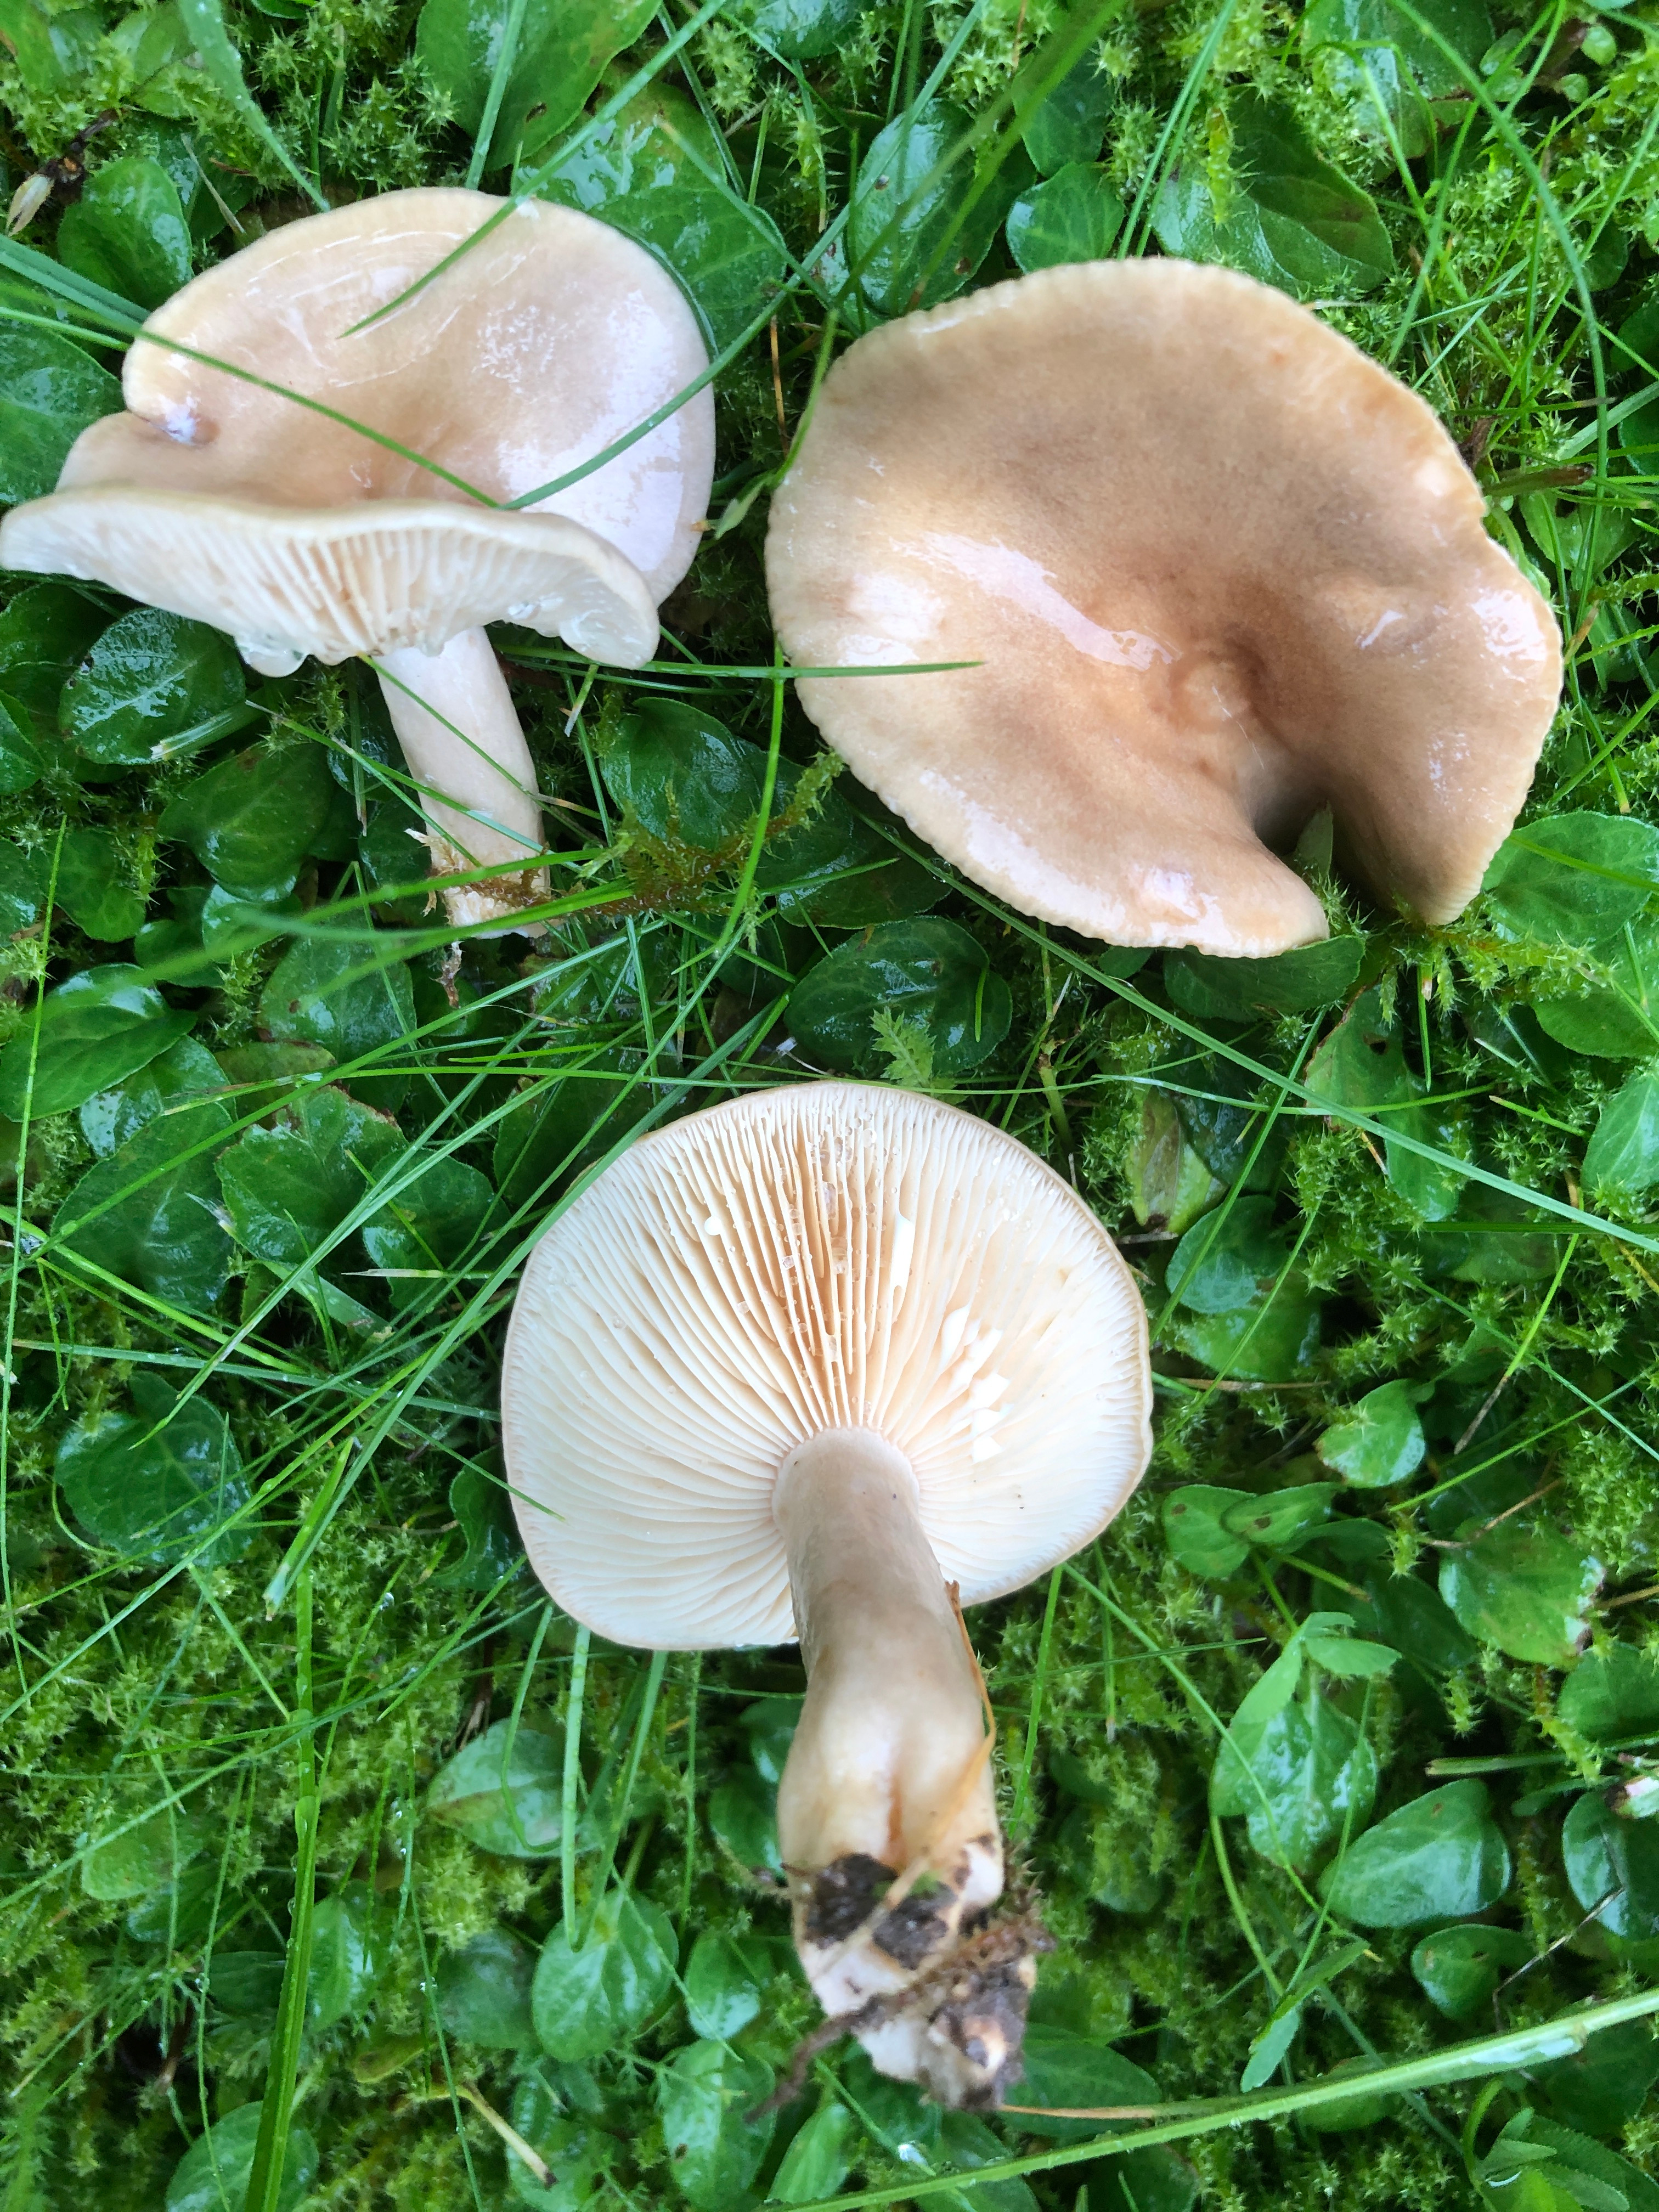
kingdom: Fungi
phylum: Basidiomycota
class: Agaricomycetes
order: Russulales
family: Russulaceae
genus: Lactarius
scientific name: Lactarius pyrogalus
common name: hassel-mælkehat
